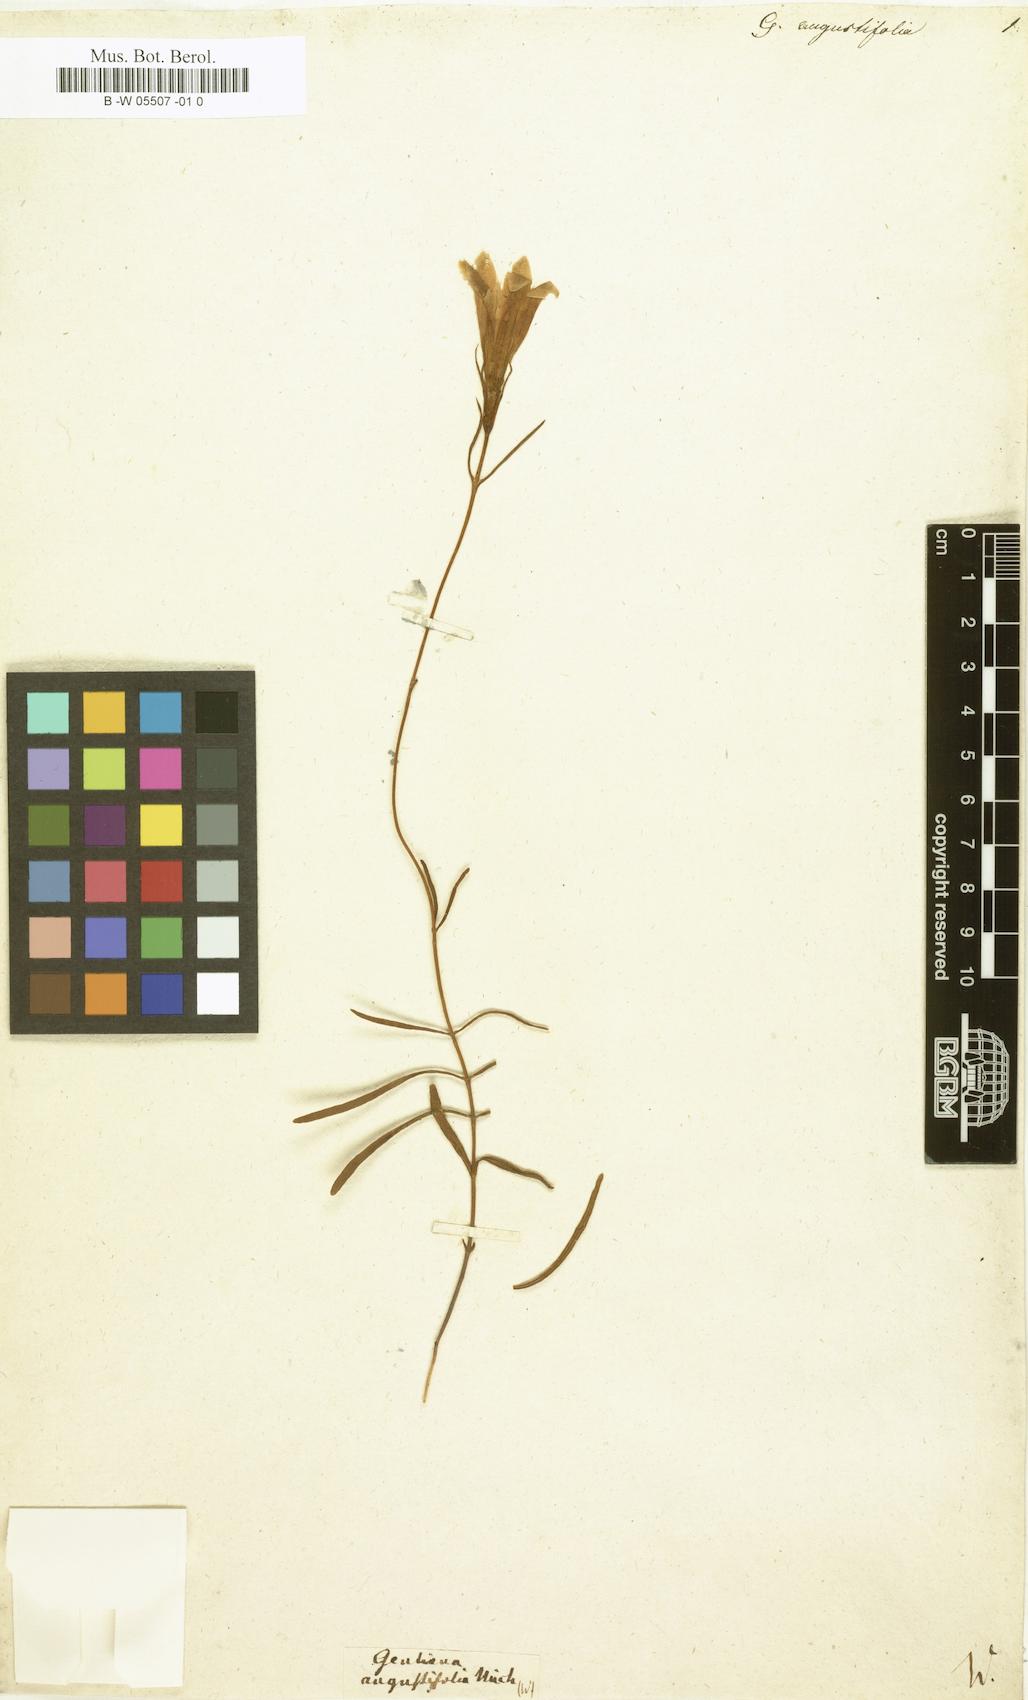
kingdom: Plantae
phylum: Tracheophyta
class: Magnoliopsida
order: Gentianales
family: Gentianaceae
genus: Gentiana
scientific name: Gentiana angustifolia
